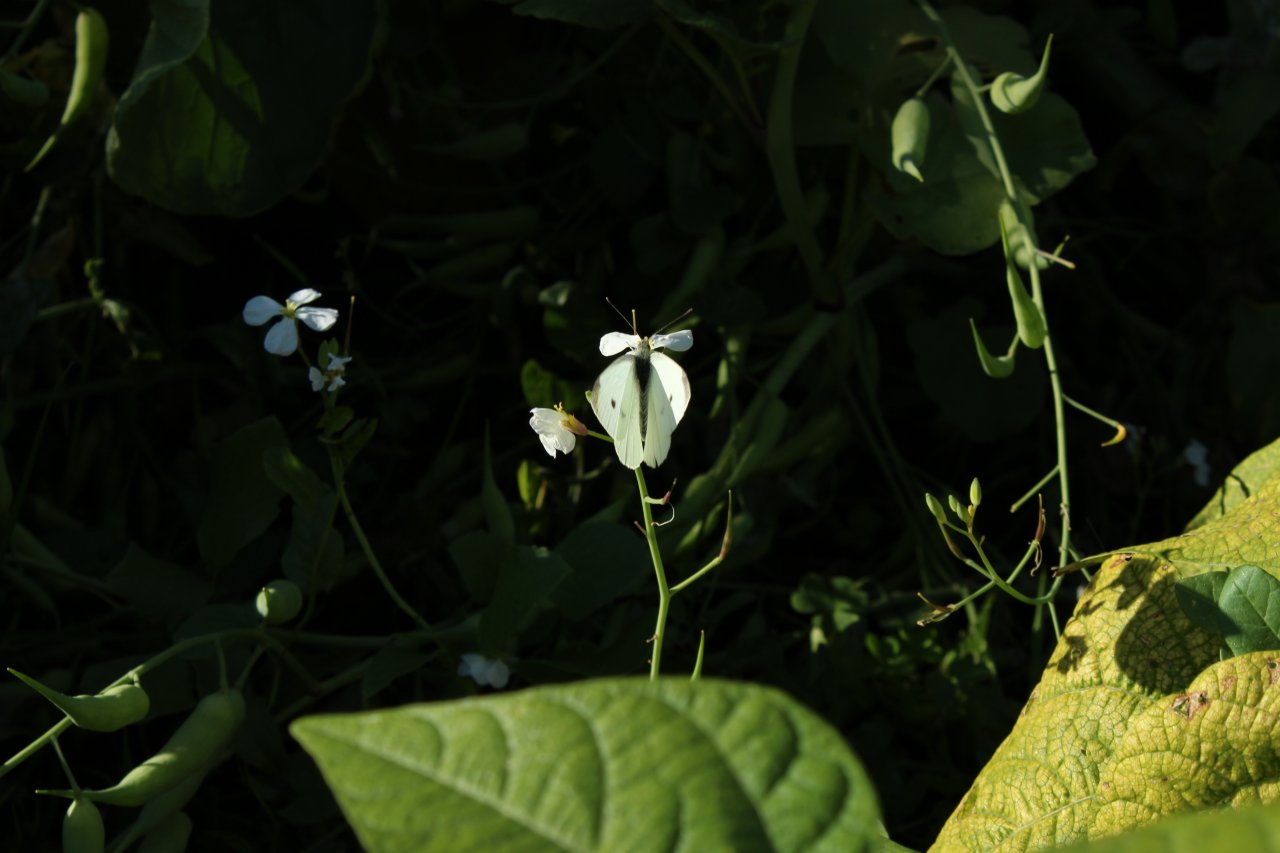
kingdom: Animalia
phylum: Arthropoda
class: Insecta
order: Lepidoptera
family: Pieridae
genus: Pieris
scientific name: Pieris rapae
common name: Cabbage White
